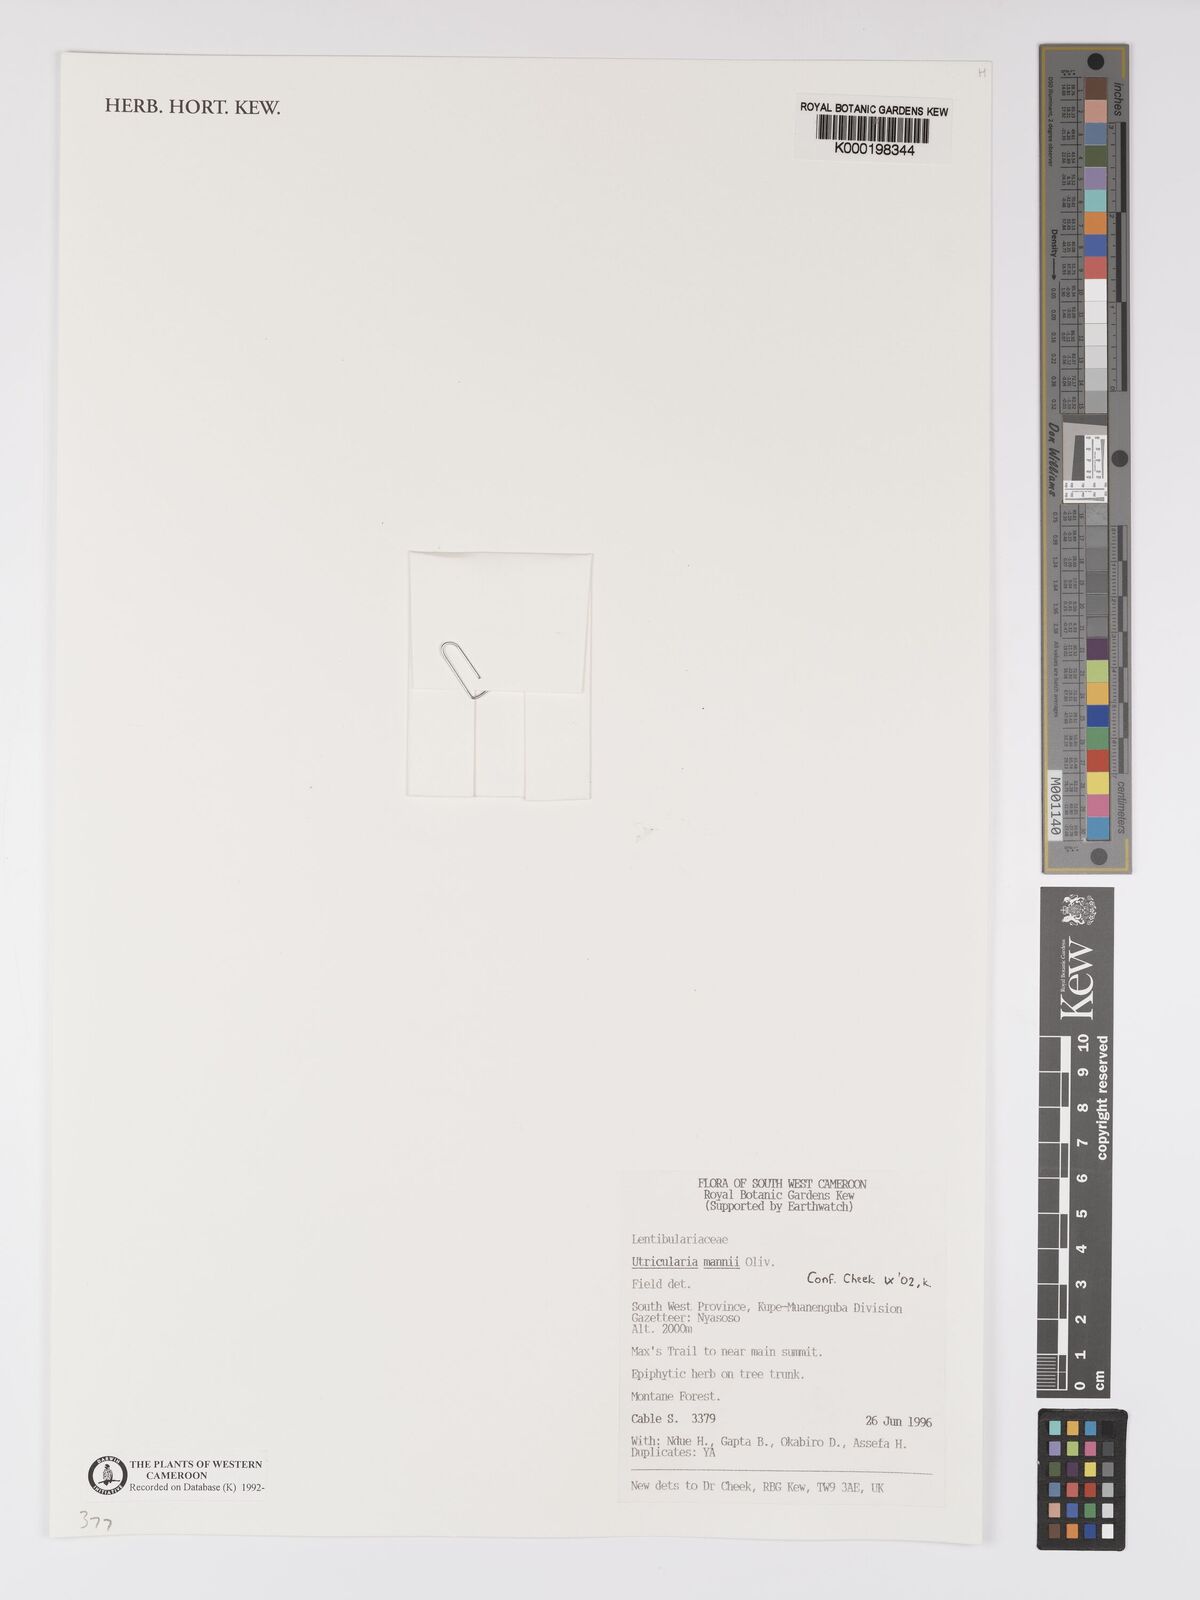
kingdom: Plantae
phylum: Tracheophyta
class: Magnoliopsida
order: Lamiales
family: Lentibulariaceae
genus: Utricularia
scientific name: Utricularia mannii
